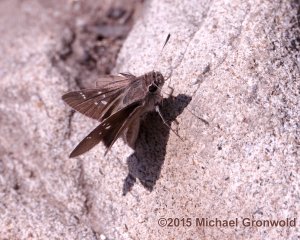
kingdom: Animalia
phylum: Arthropoda
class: Insecta
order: Lepidoptera
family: Hesperiidae
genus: Lerodea
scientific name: Lerodea eufala
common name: Eufala Skipper
